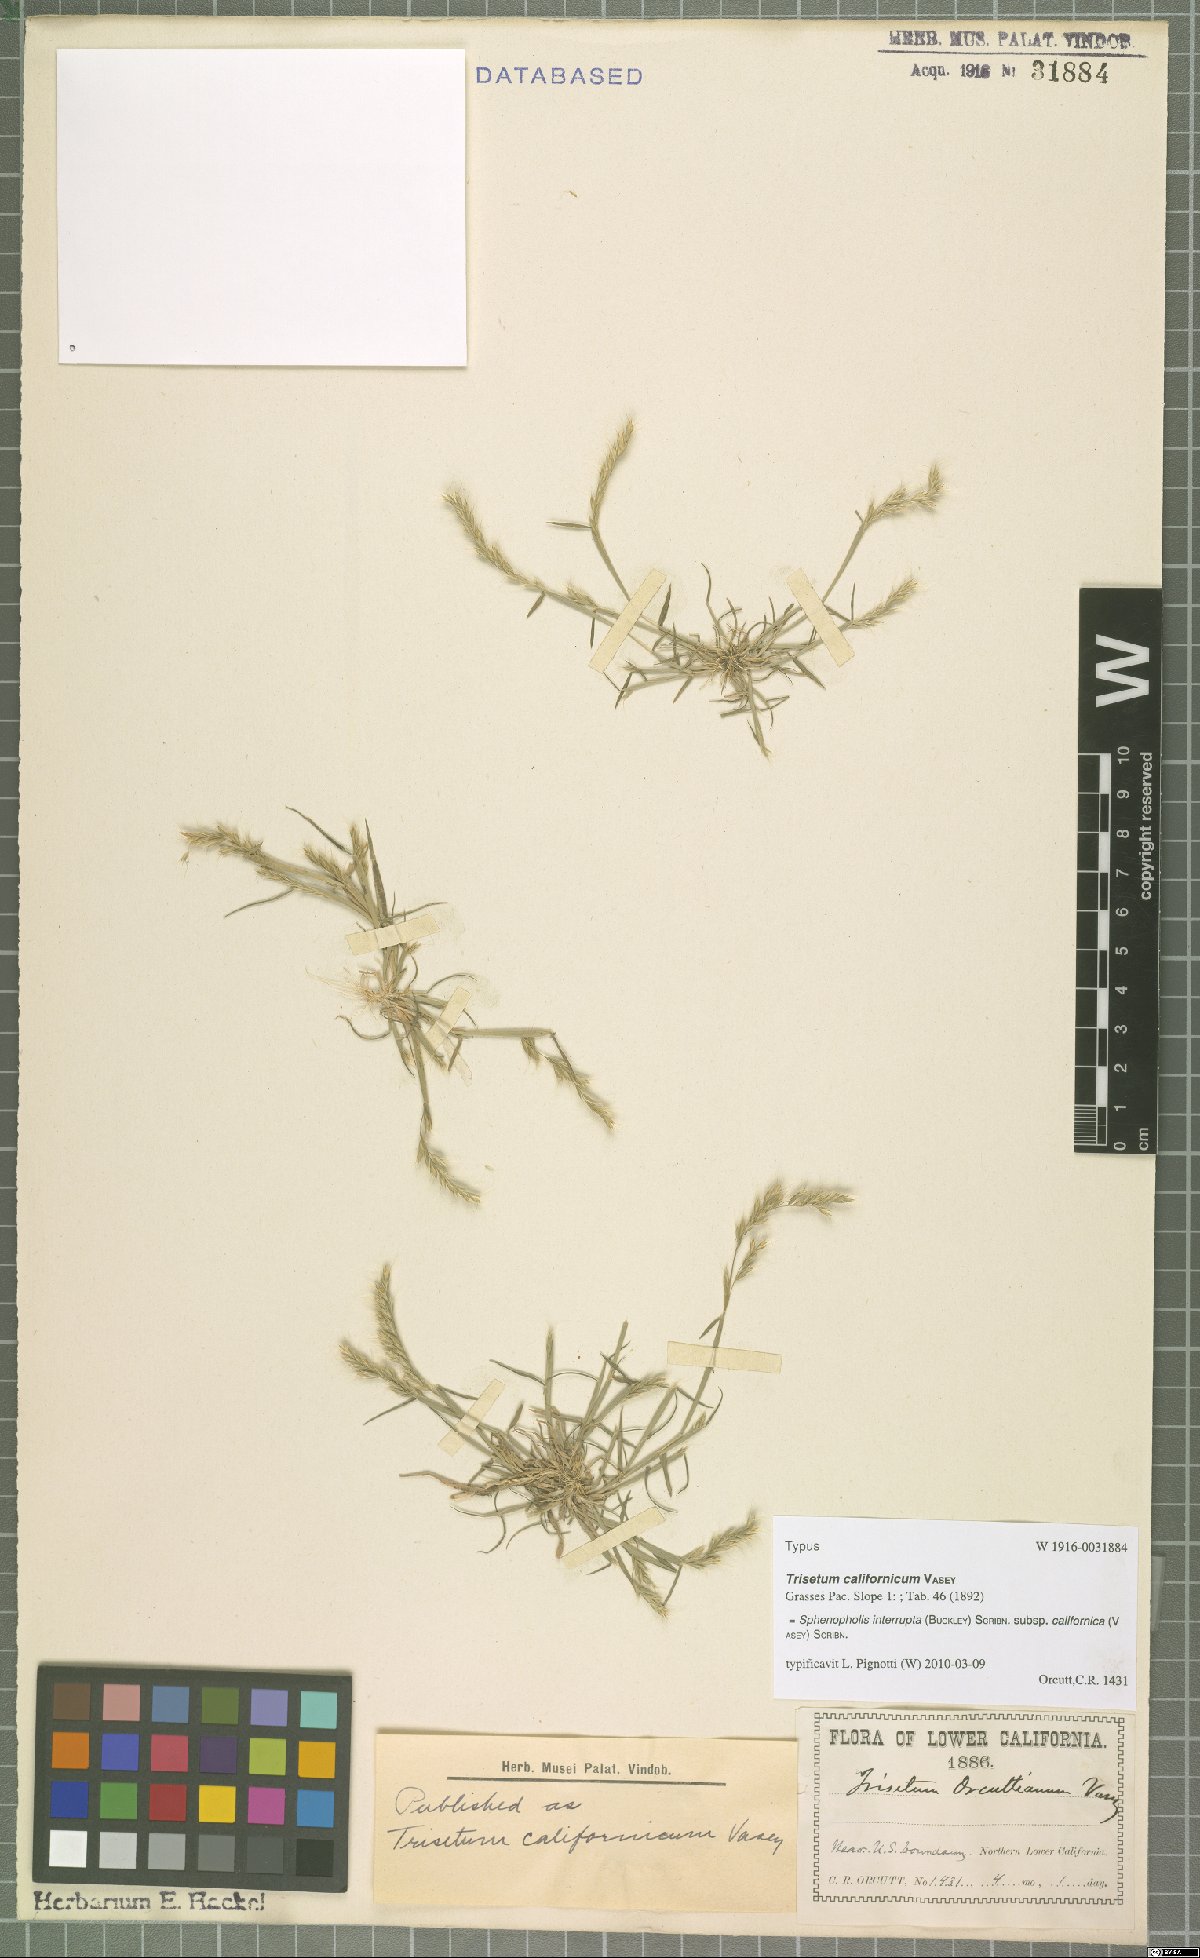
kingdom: Plantae
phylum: Tracheophyta
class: Liliopsida
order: Poales
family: Poaceae
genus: Sphenopholis
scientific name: Sphenopholis interrupta
